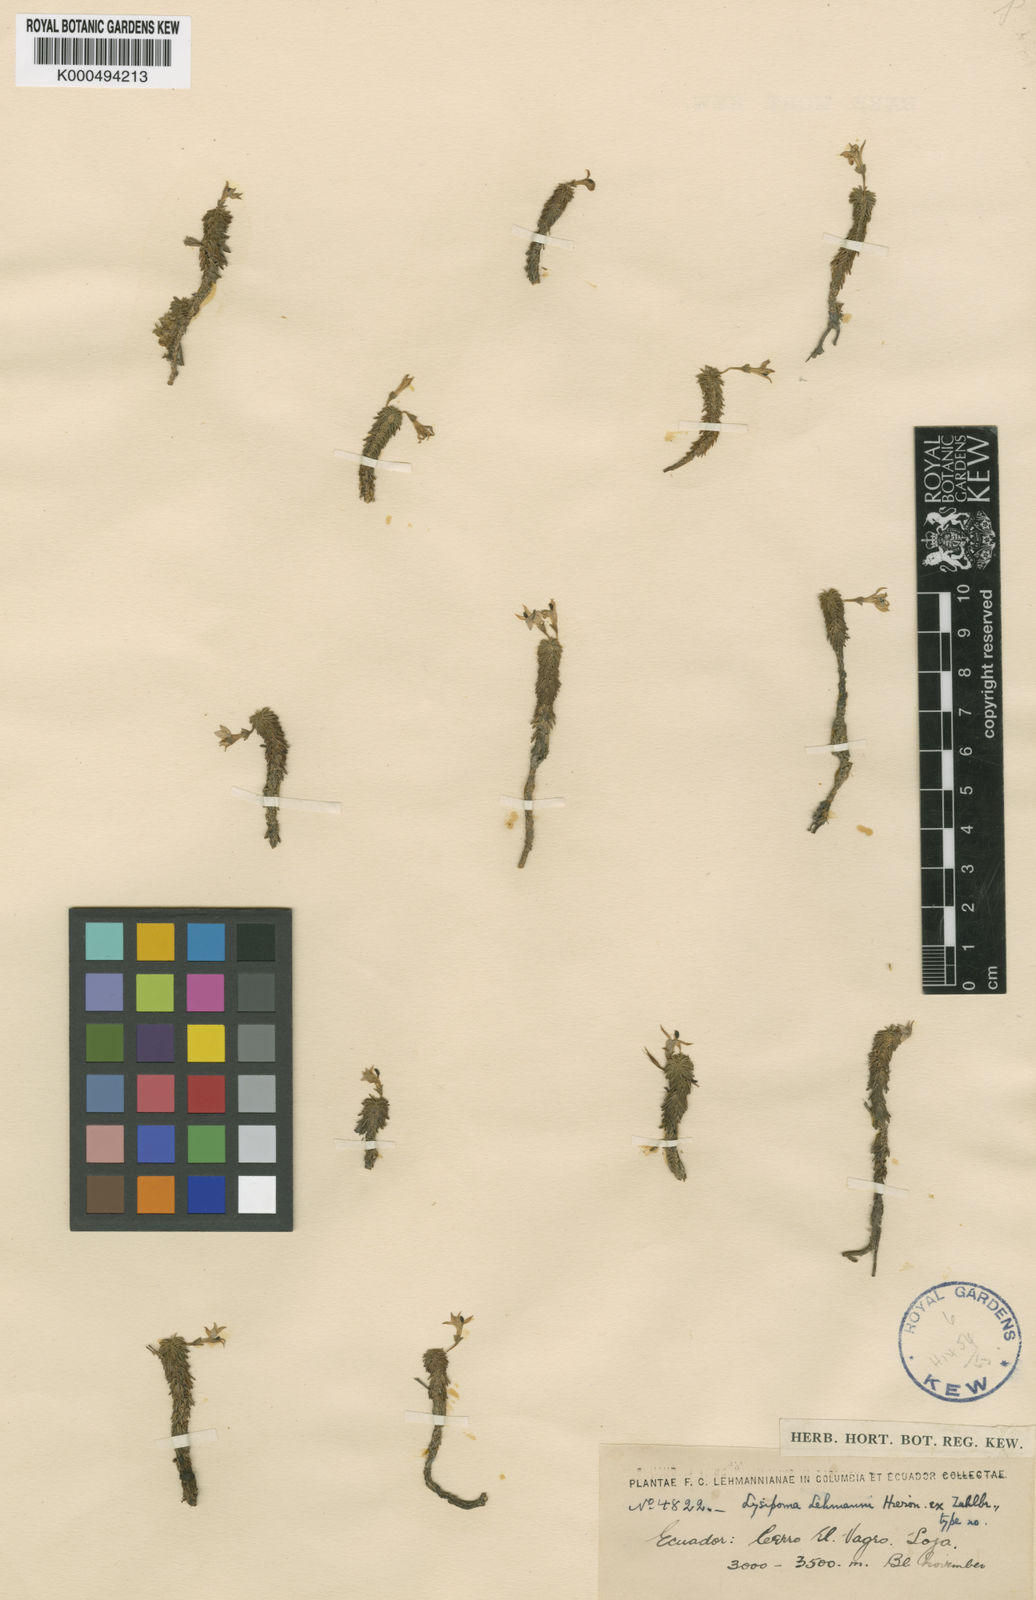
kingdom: Plantae
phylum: Tracheophyta
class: Magnoliopsida
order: Asterales
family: Campanulaceae
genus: Lysipomia
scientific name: Lysipomia
